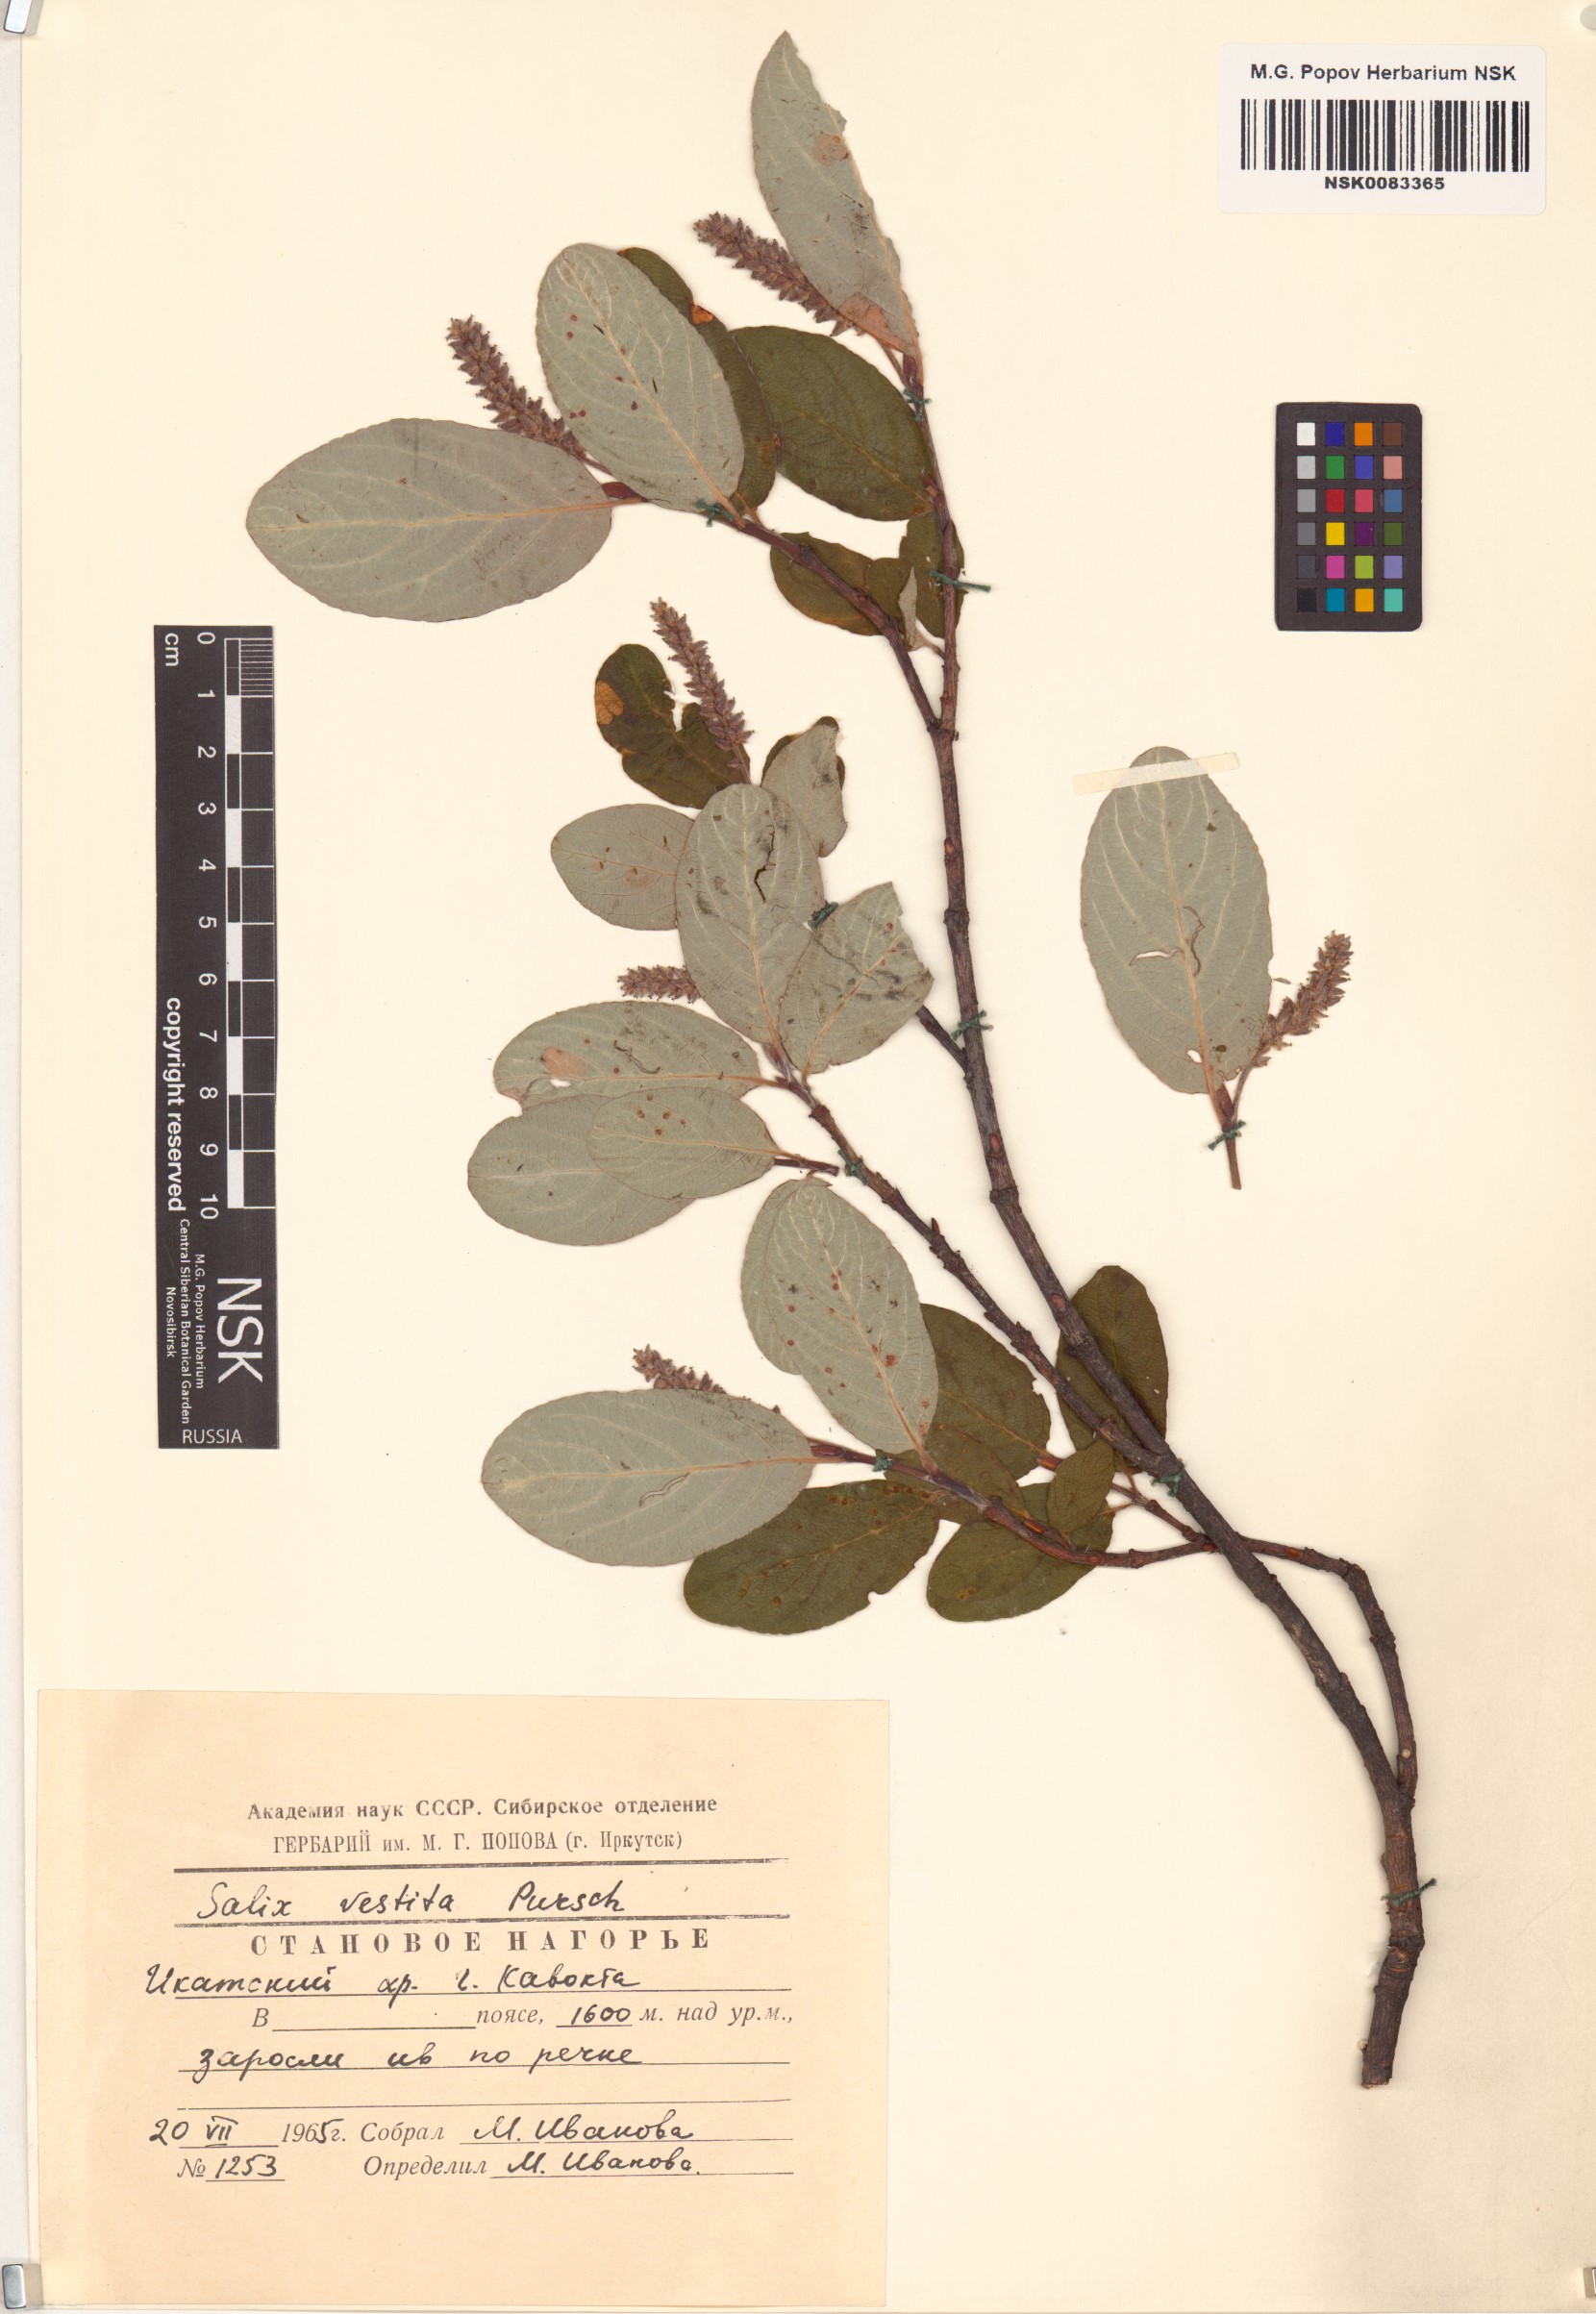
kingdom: Plantae
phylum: Tracheophyta
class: Magnoliopsida
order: Malpighiales
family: Salicaceae
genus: Salix
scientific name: Salix vestita
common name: Hairy willow
